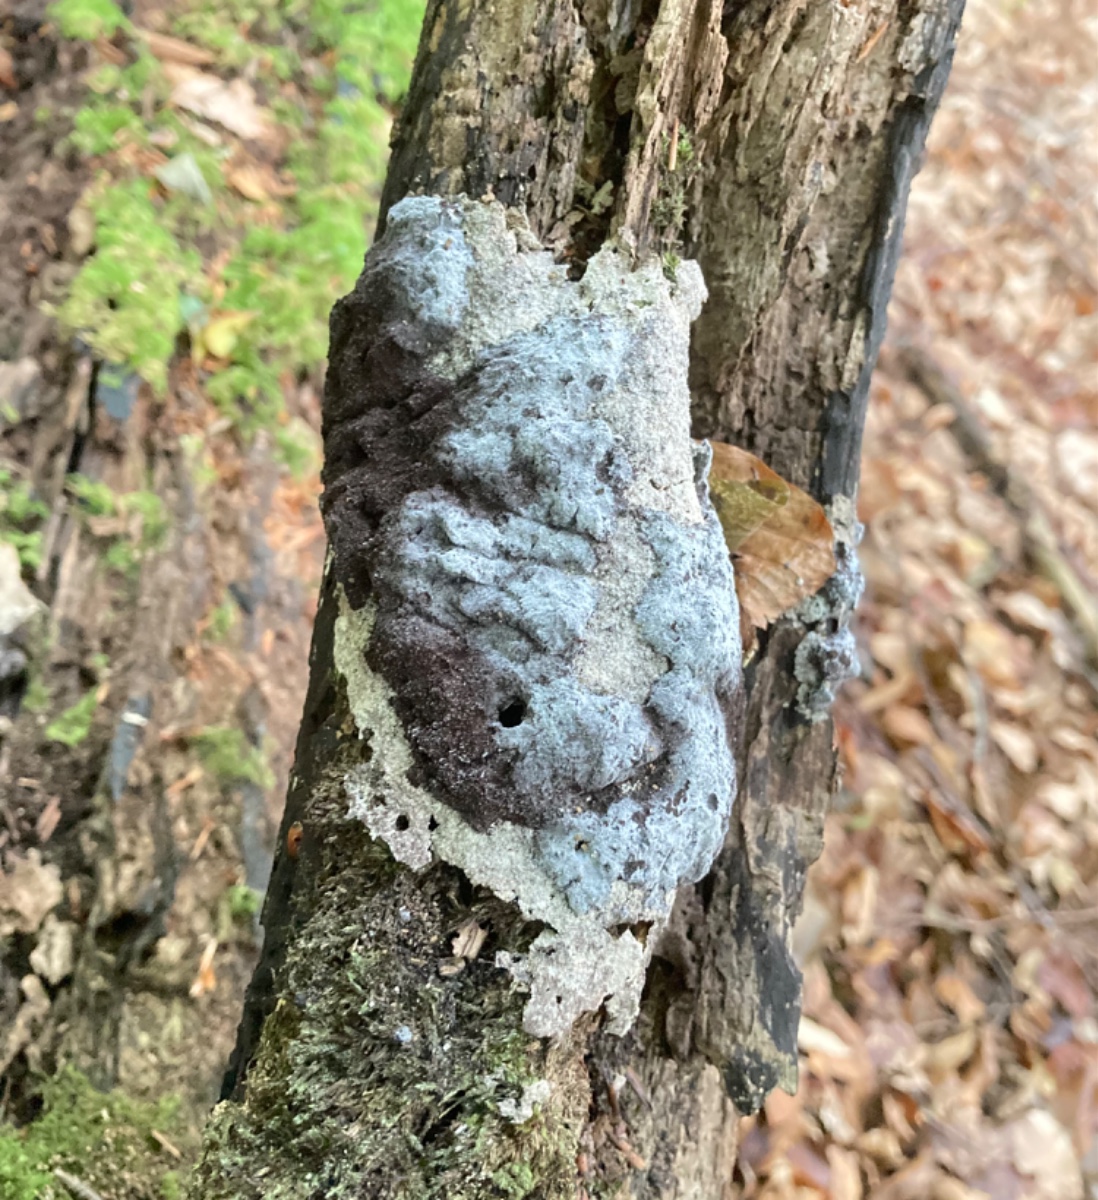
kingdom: Protozoa
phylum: Mycetozoa
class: Myxomycetes
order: Physarales
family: Physaraceae
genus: Fuligo
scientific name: Fuligo
